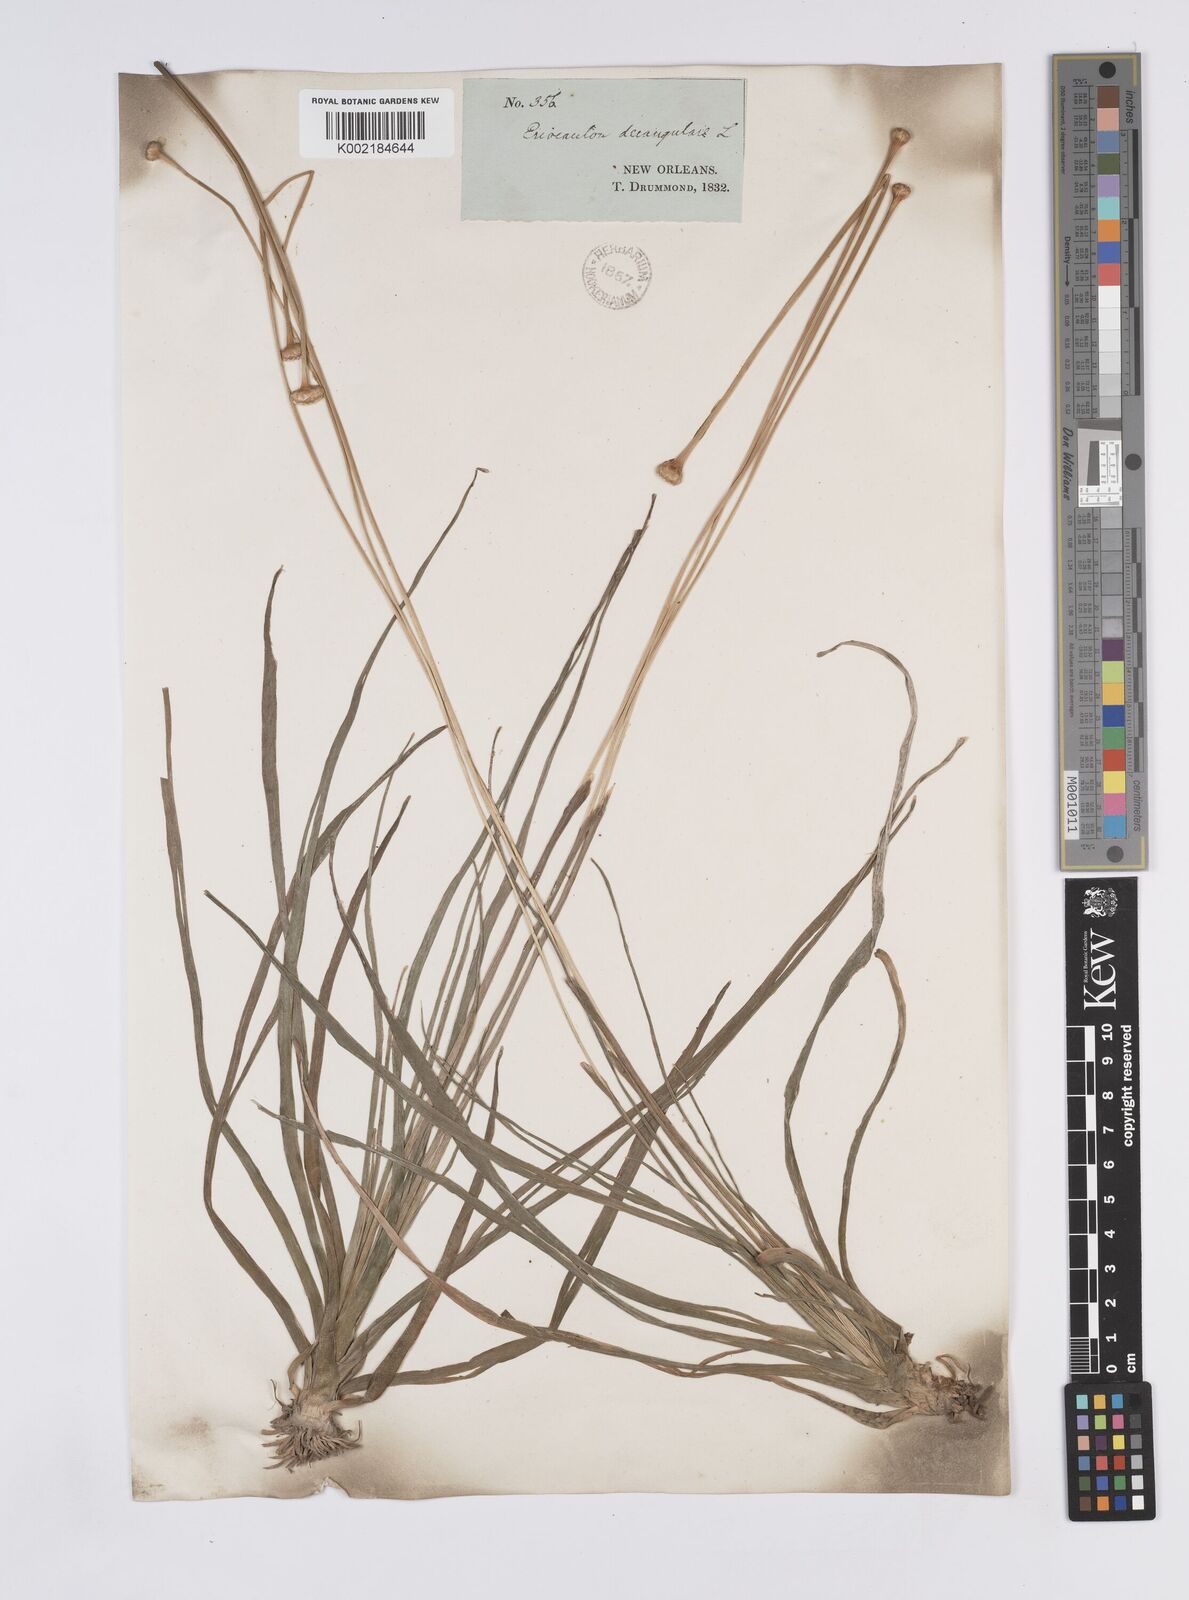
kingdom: Plantae
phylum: Tracheophyta
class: Liliopsida
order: Poales
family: Eriocaulaceae
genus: Eriocaulon
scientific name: Eriocaulon decangulare
